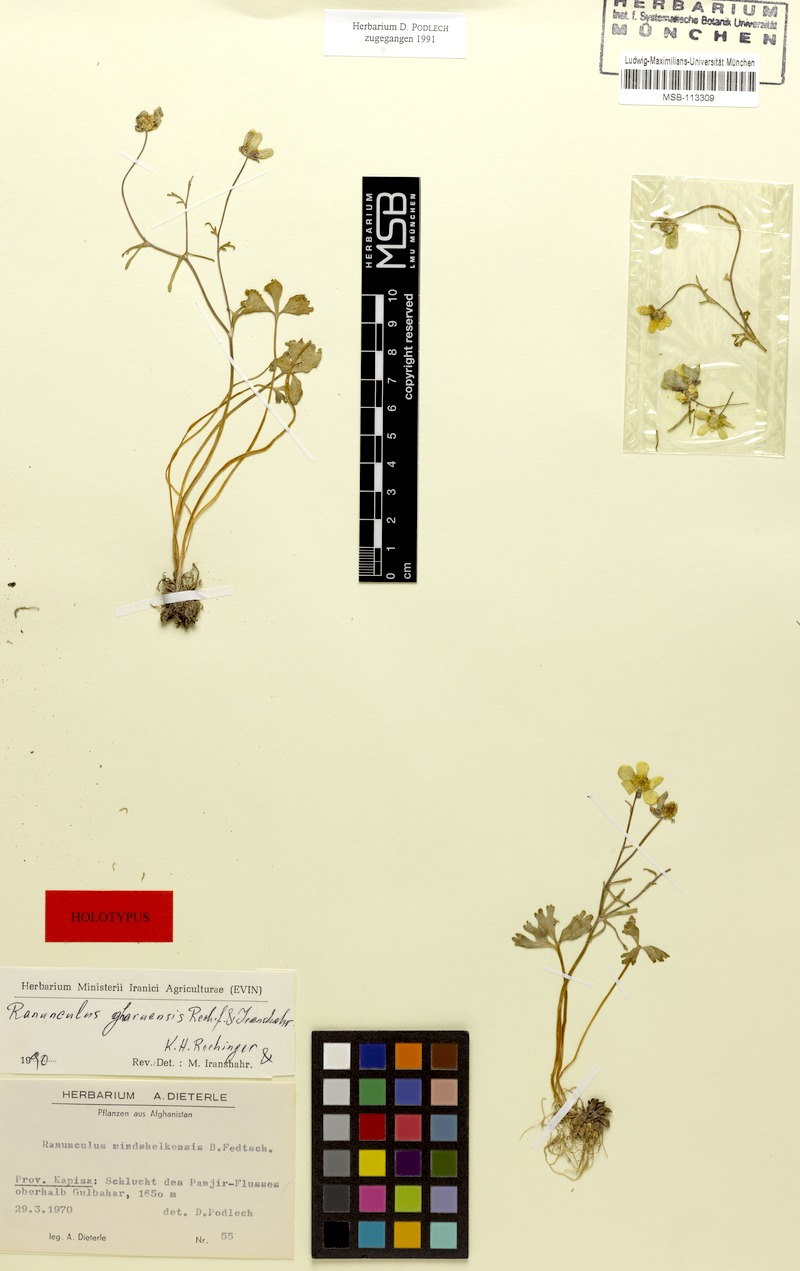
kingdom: Plantae
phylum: Tracheophyta
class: Magnoliopsida
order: Ranunculales
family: Ranunculaceae
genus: Ranunculus
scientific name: Ranunculus gharuensis
